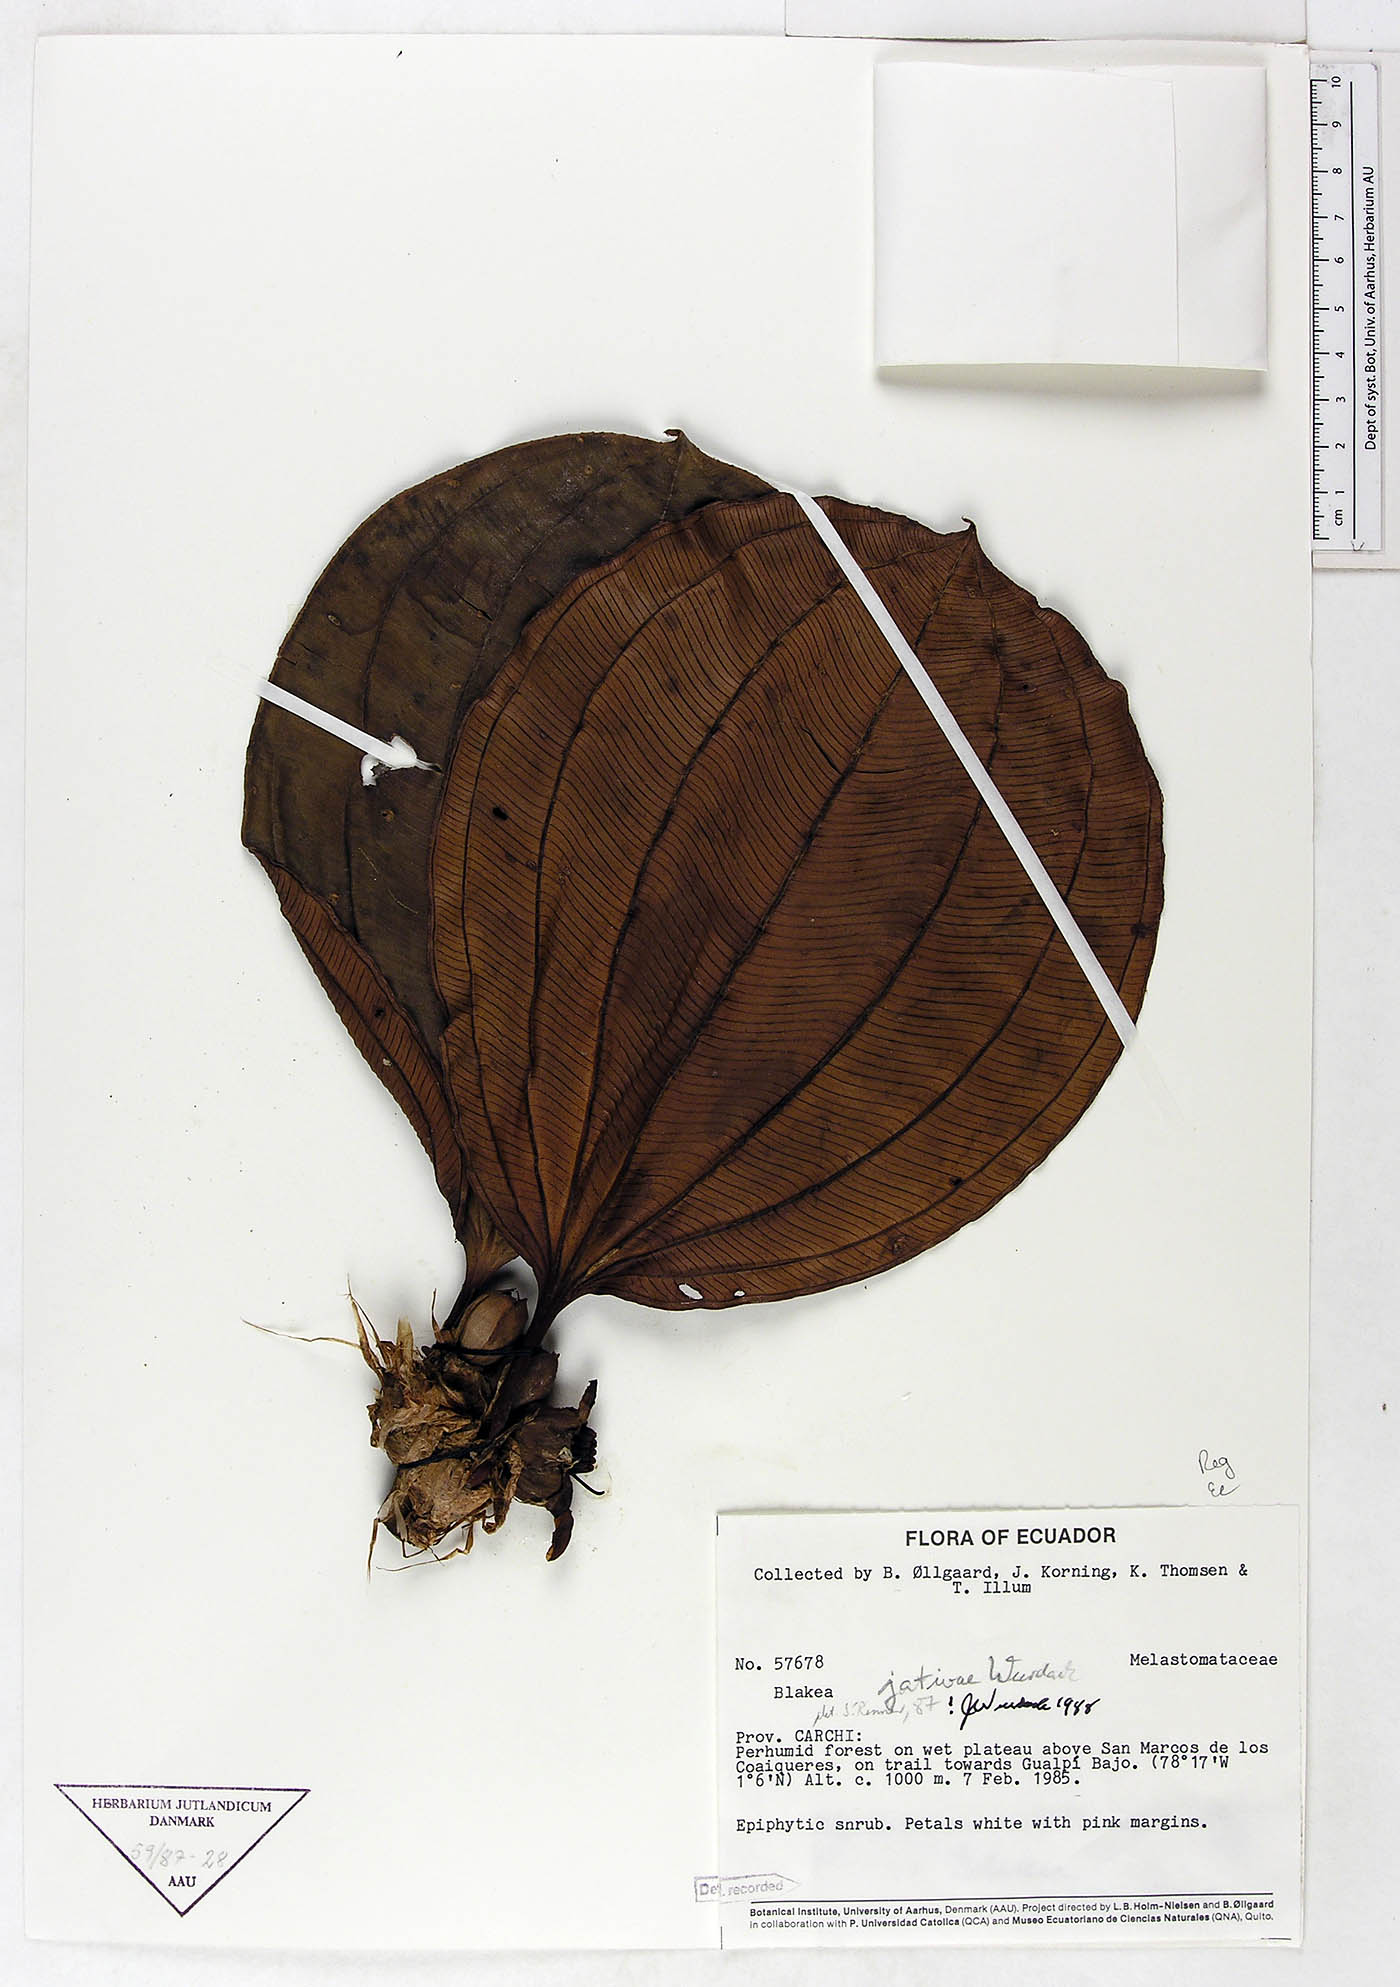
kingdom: Plantae
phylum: Tracheophyta
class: Magnoliopsida
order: Myrtales
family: Melastomataceae
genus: Blakea
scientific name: Blakea jativae
